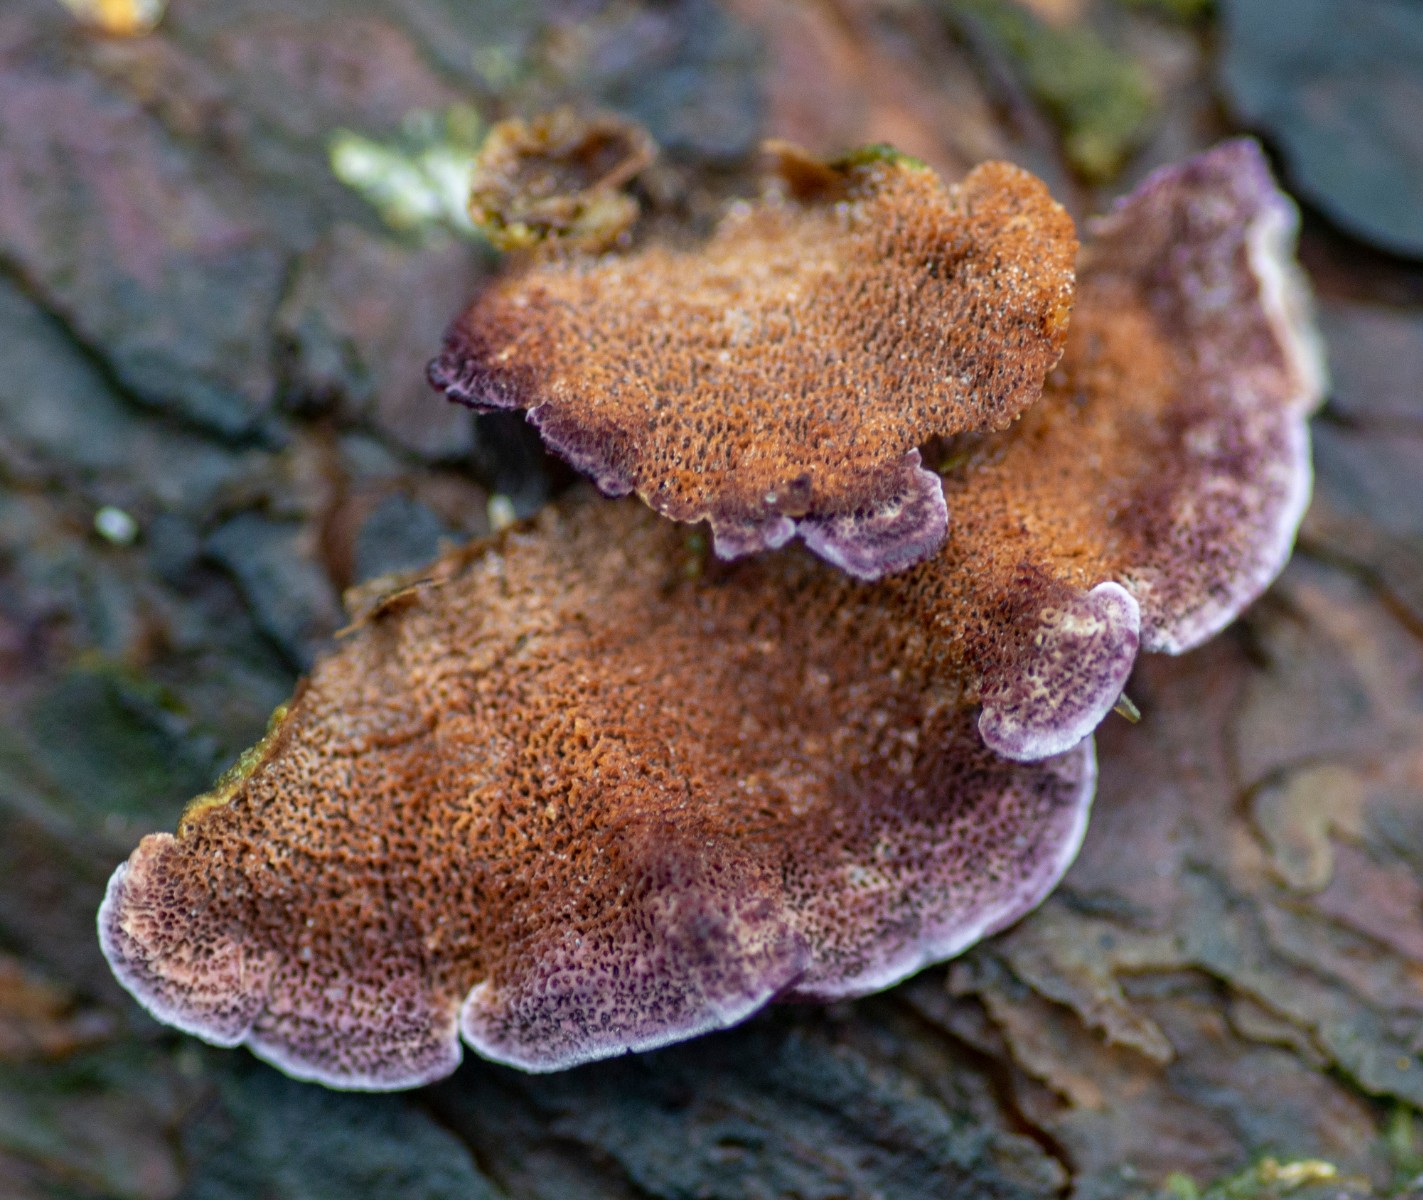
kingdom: Fungi
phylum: Basidiomycota
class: Agaricomycetes
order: Hymenochaetales
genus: Trichaptum
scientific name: Trichaptum abietinum
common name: almindelig violporesvamp
